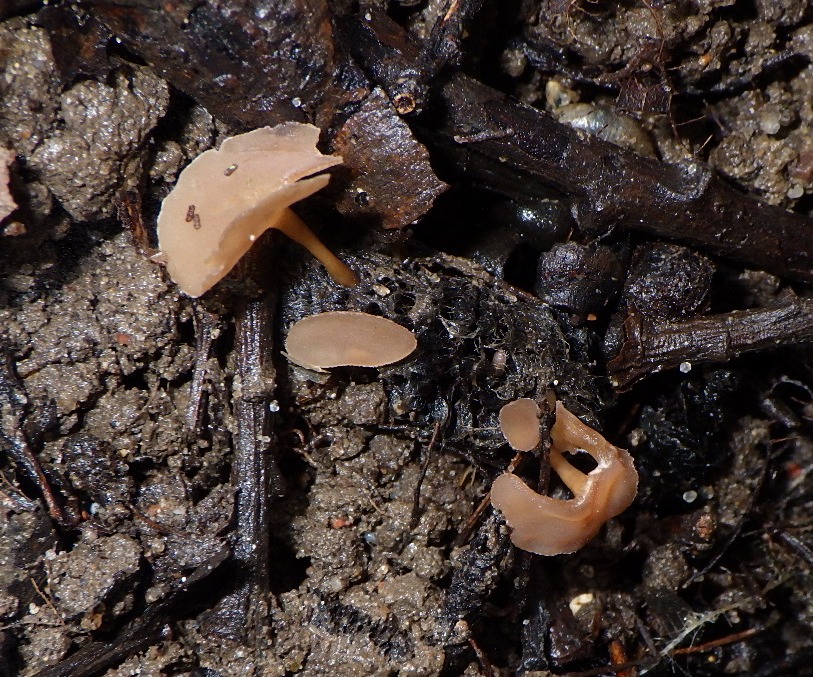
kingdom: Fungi
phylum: Ascomycota
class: Leotiomycetes
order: Helotiales
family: Sclerotiniaceae
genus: Ciboria
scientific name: Ciboria caucus
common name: rakle-knoldskive
